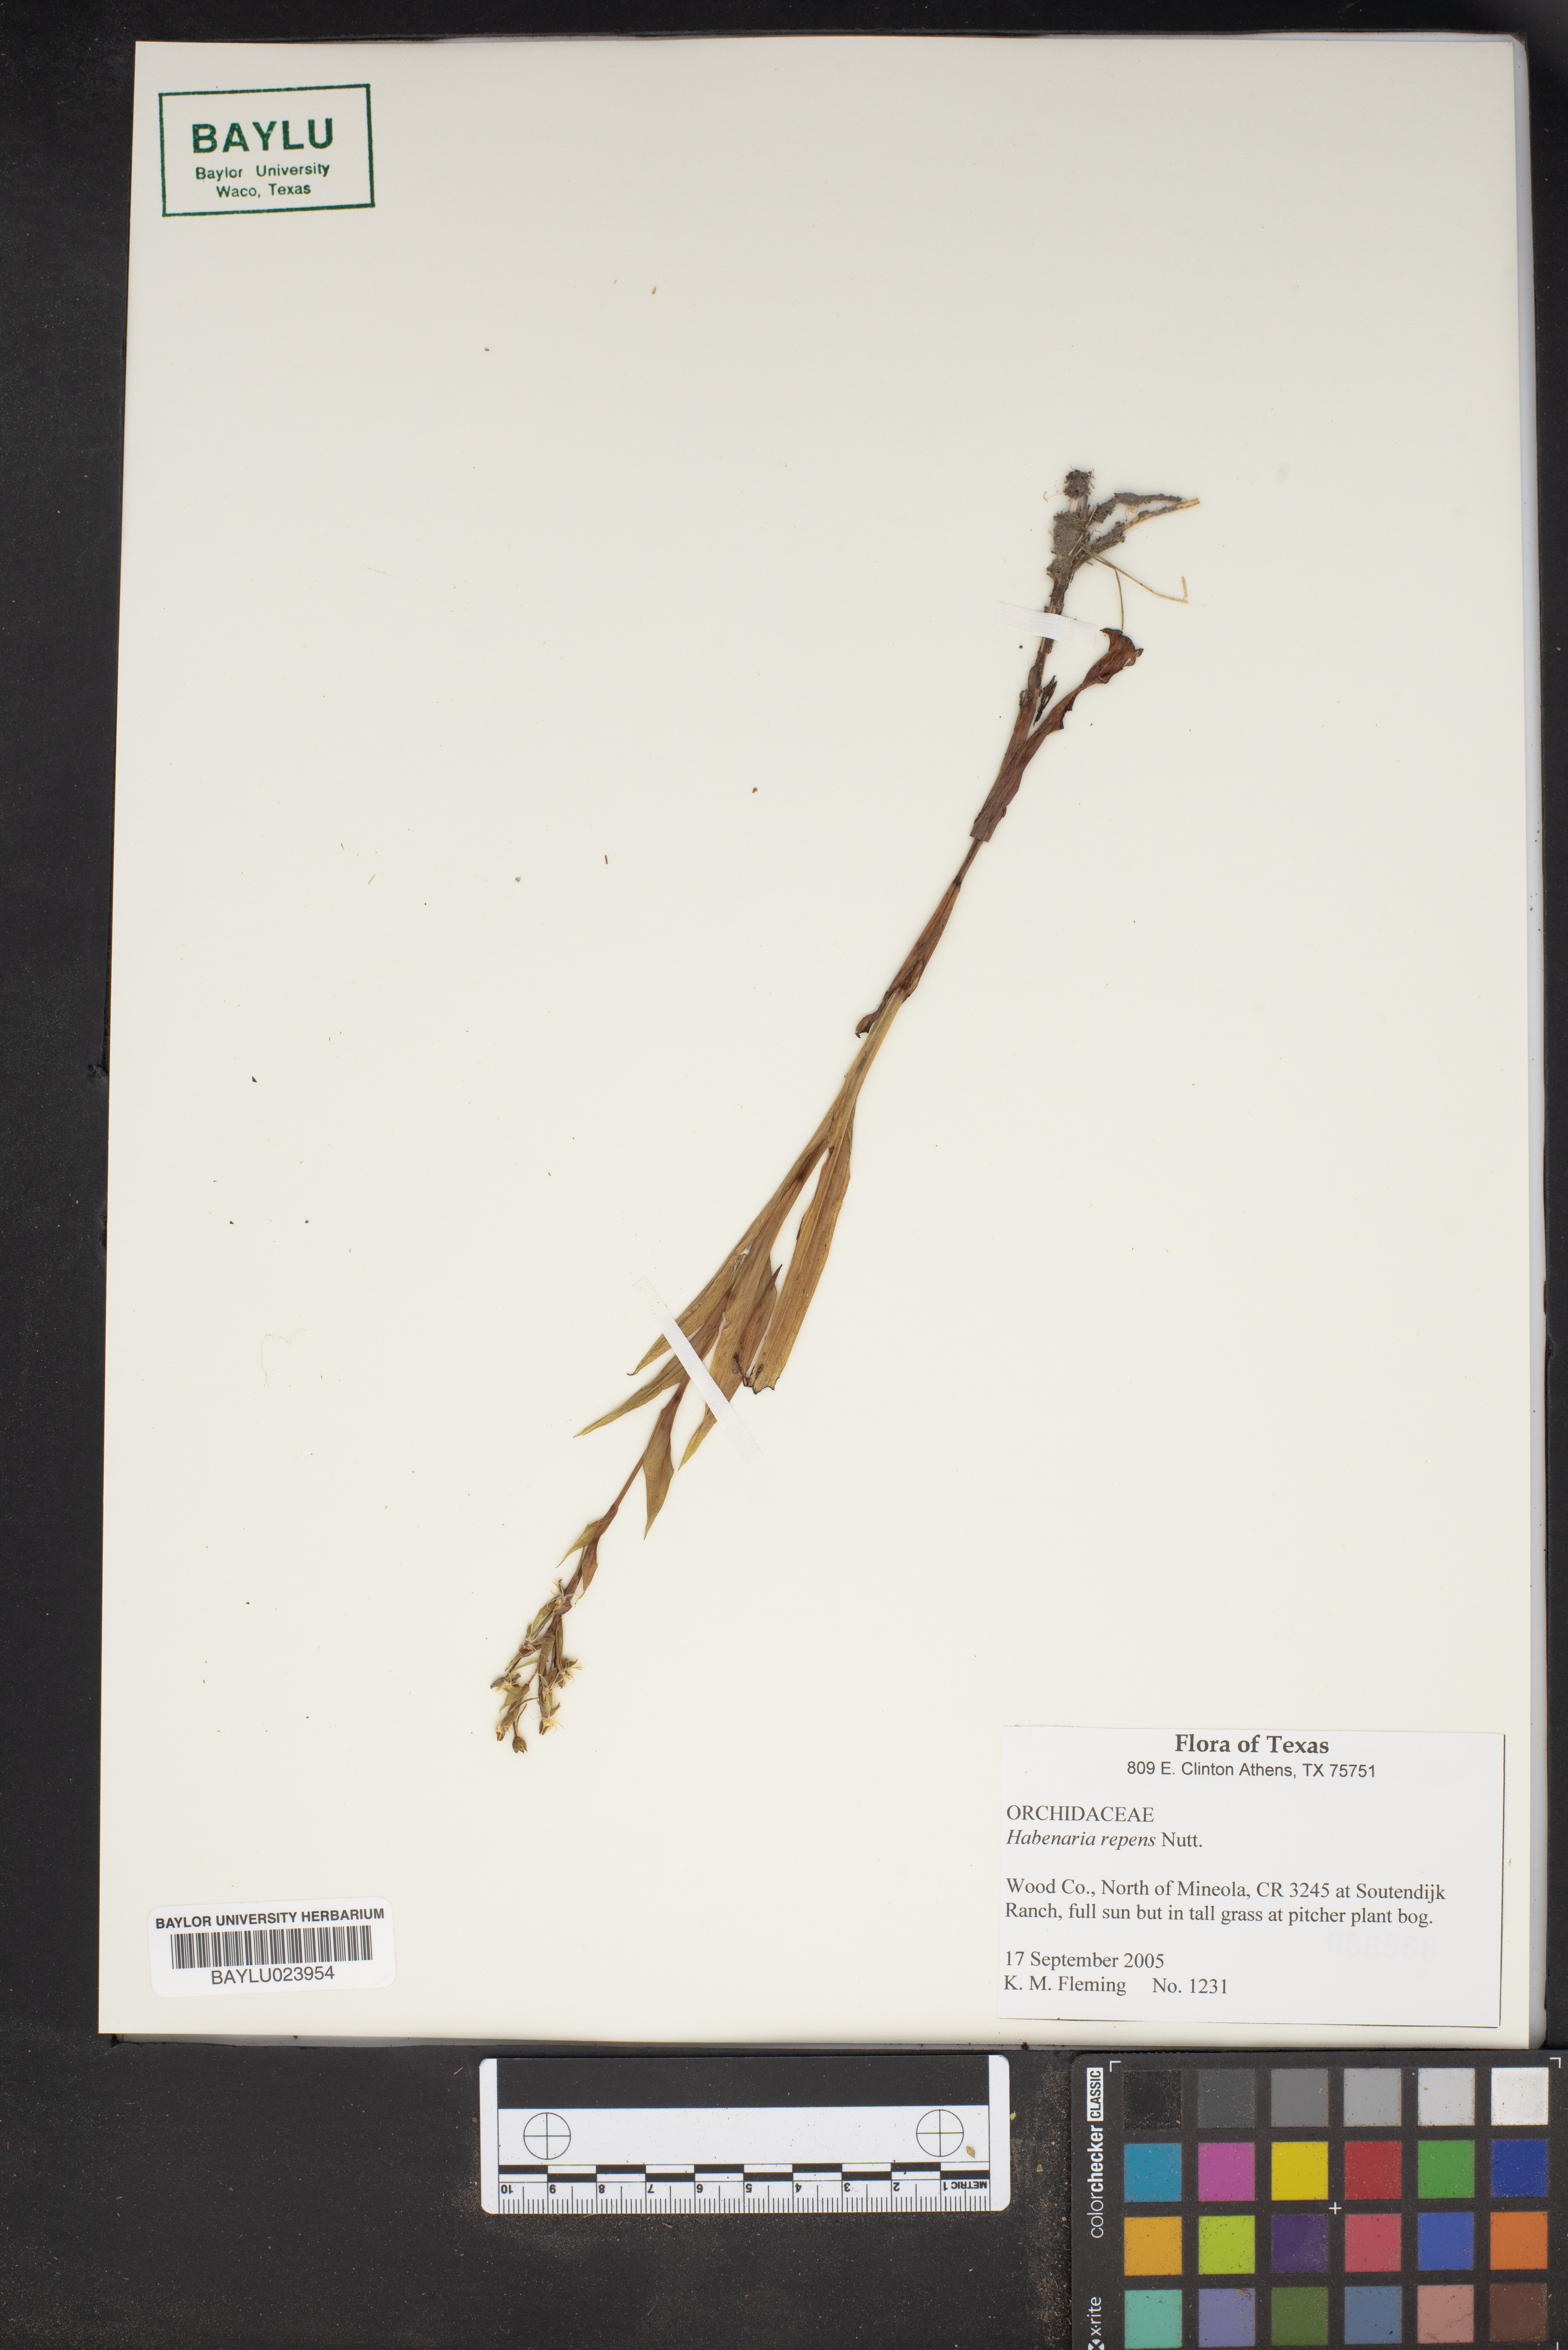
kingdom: Plantae
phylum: Tracheophyta
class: Liliopsida
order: Asparagales
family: Orchidaceae
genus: Habenaria
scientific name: Habenaria repens
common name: Water orchid
